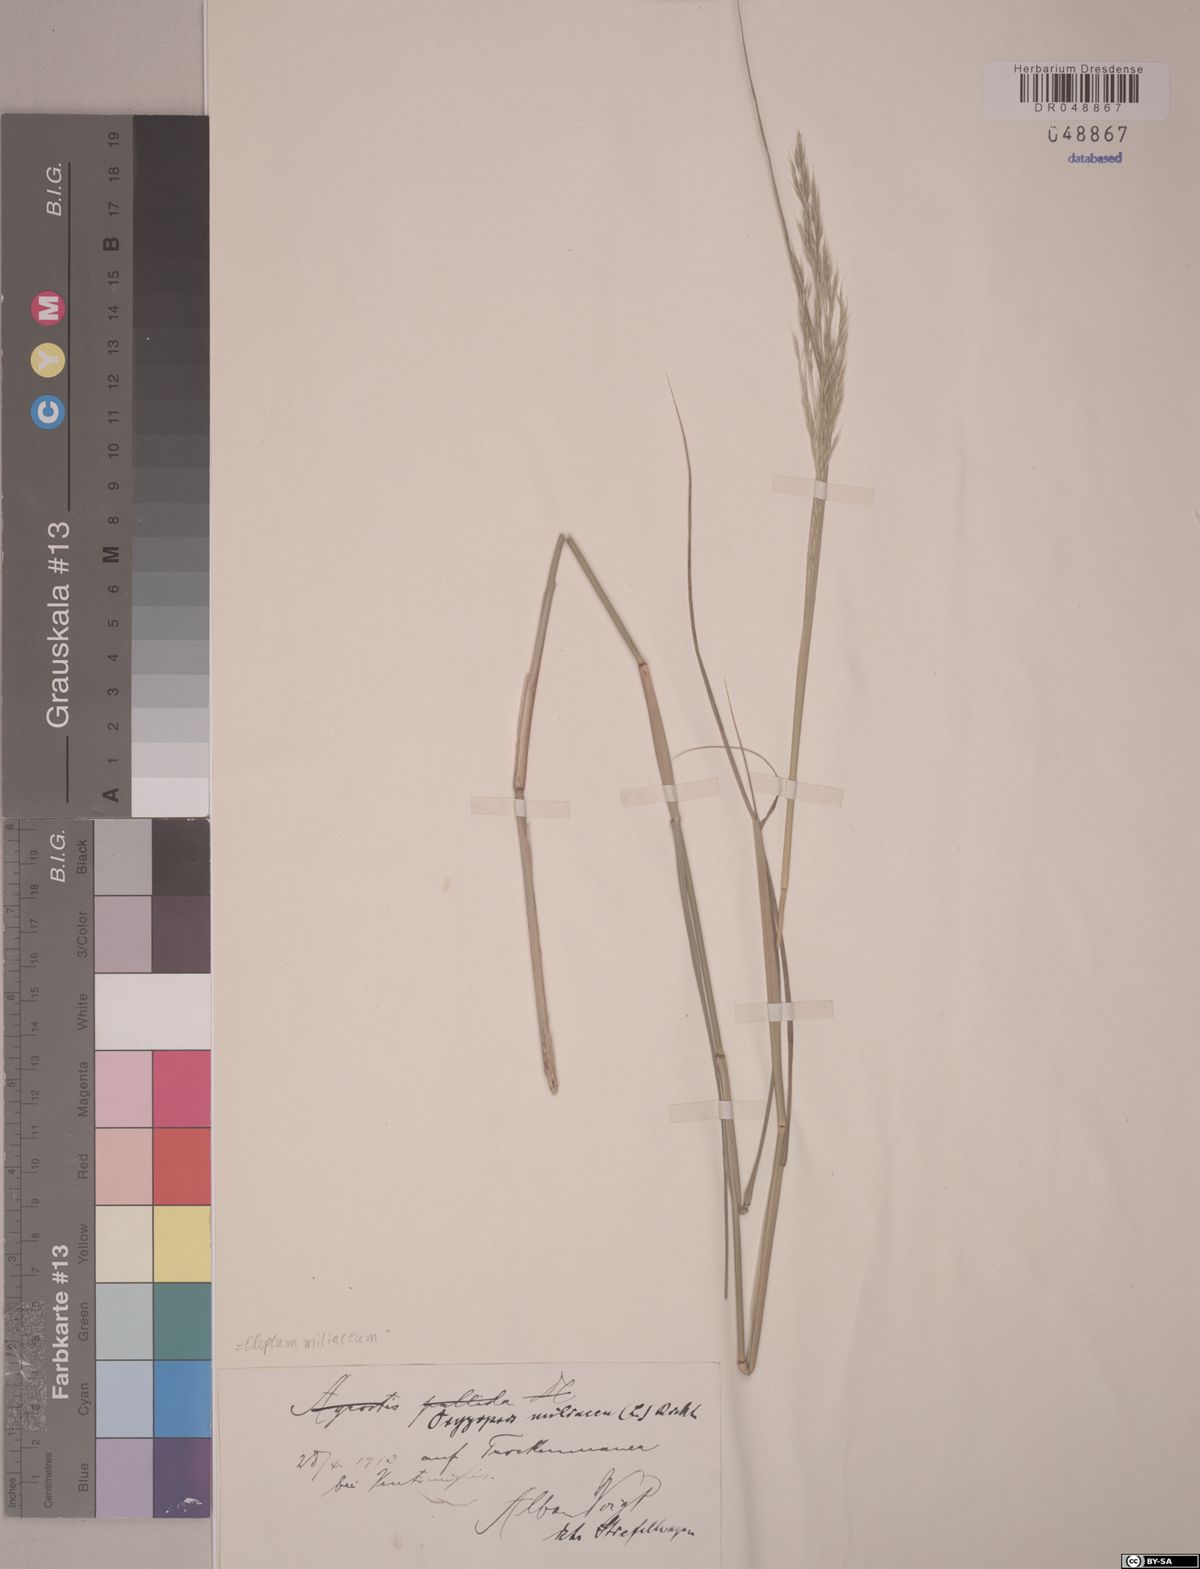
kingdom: Plantae
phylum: Tracheophyta
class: Liliopsida
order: Poales
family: Poaceae
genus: Oloptum
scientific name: Oloptum miliaceum
